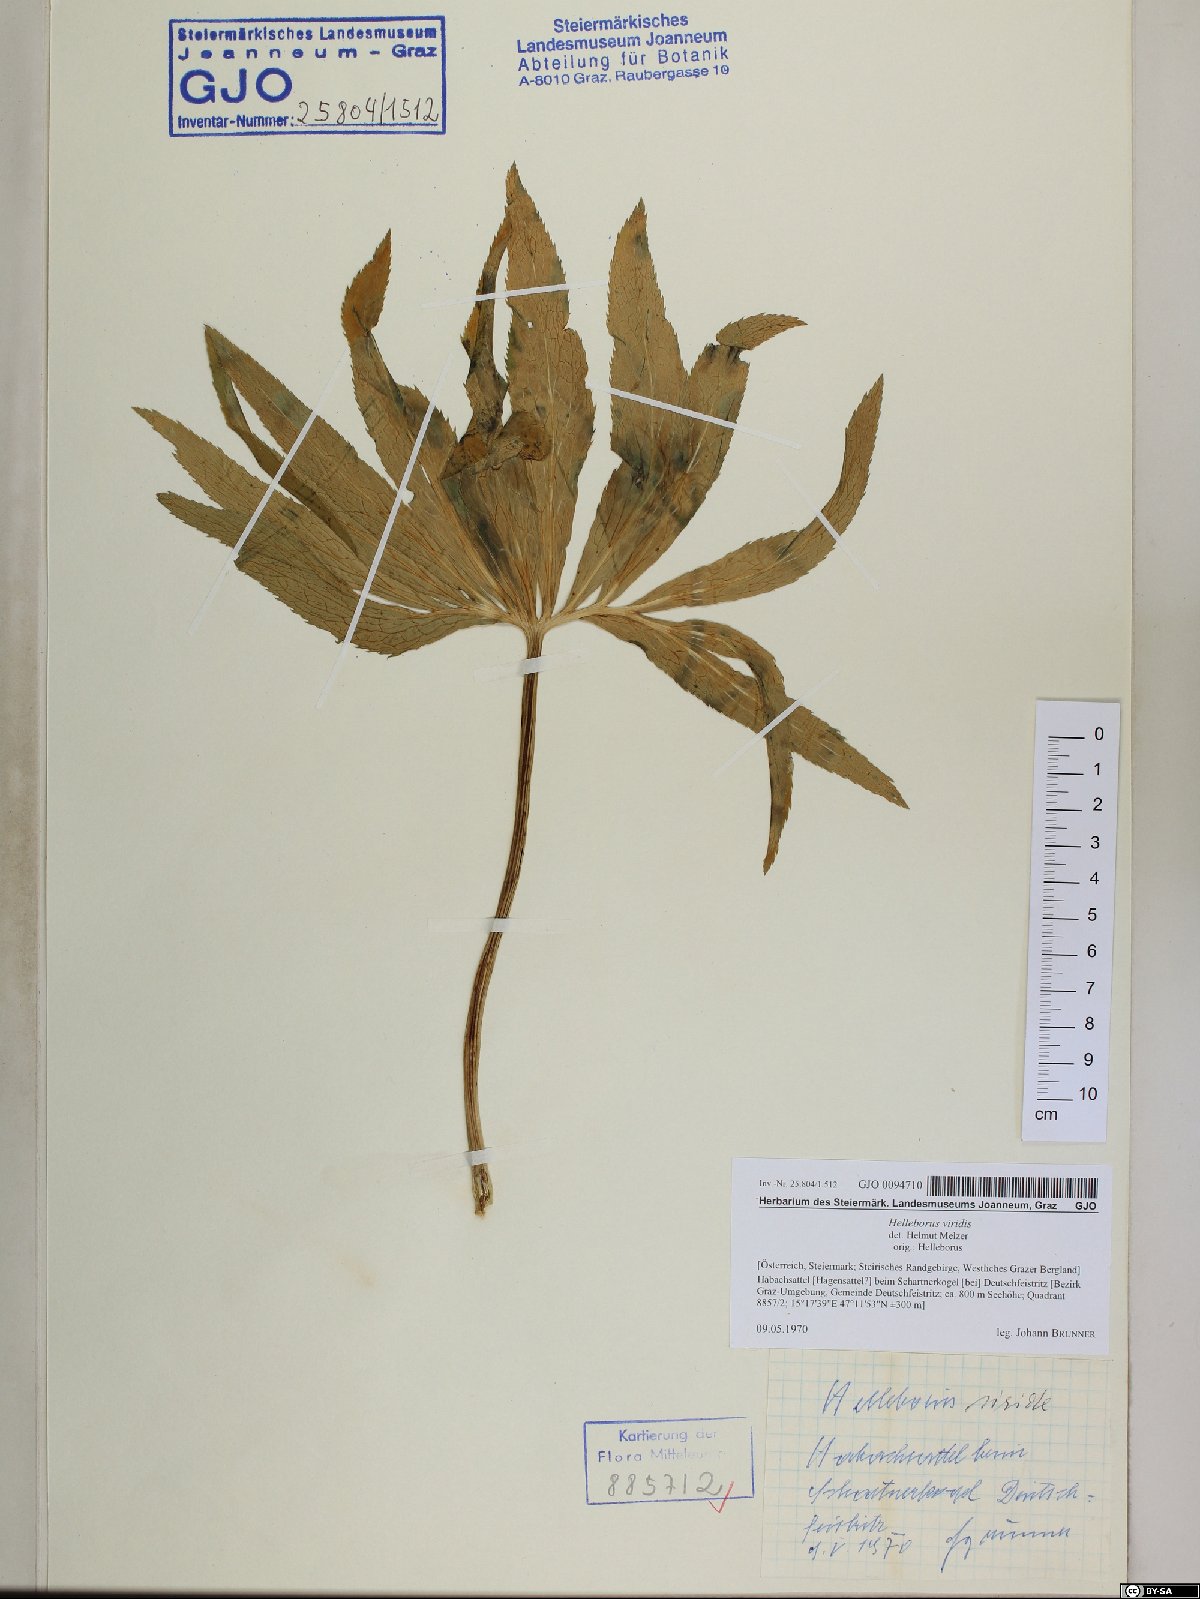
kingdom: Plantae
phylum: Tracheophyta
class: Magnoliopsida
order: Ranunculales
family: Ranunculaceae
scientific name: Ranunculaceae
